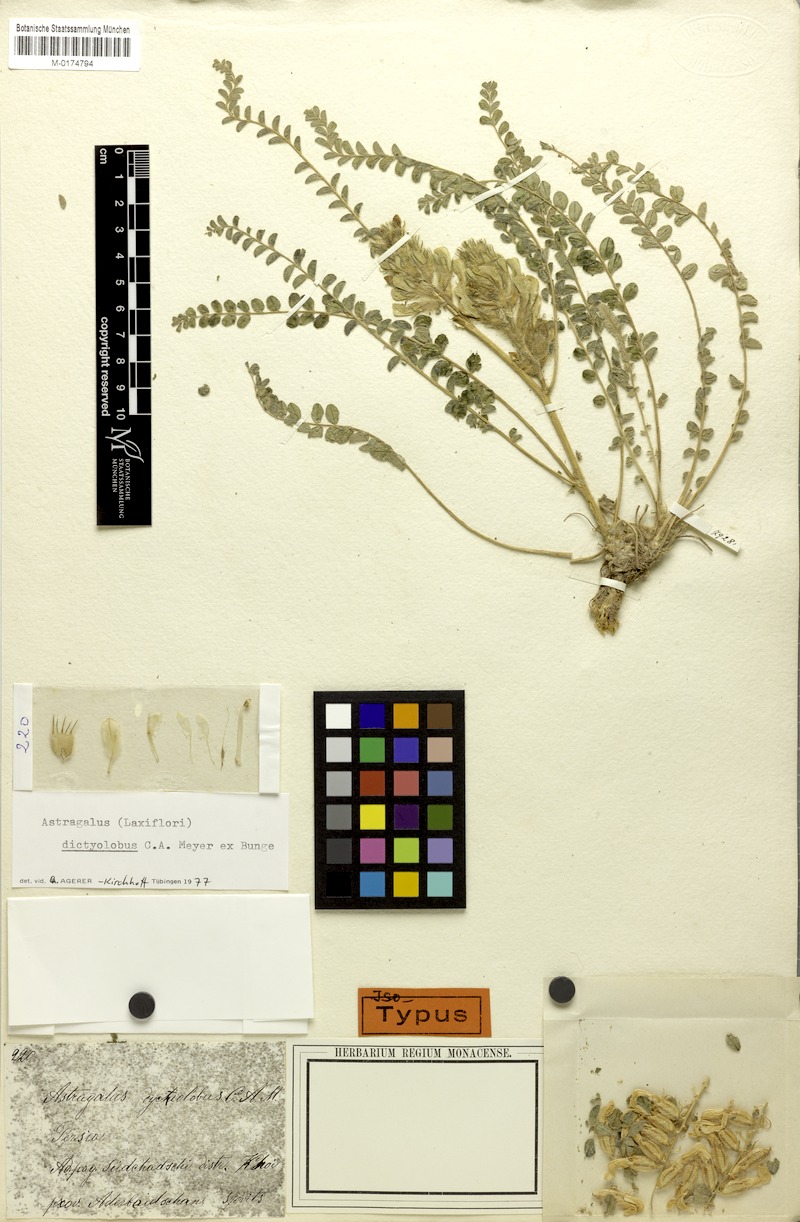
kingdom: Plantae
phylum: Tracheophyta
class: Magnoliopsida
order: Fabales
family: Fabaceae
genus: Astragalus
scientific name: Astragalus dictyolobus
